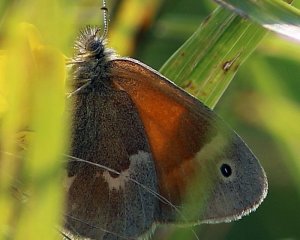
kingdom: Animalia
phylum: Arthropoda
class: Insecta
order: Lepidoptera
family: Nymphalidae
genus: Coenonympha
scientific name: Coenonympha tullia
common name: Large Heath
